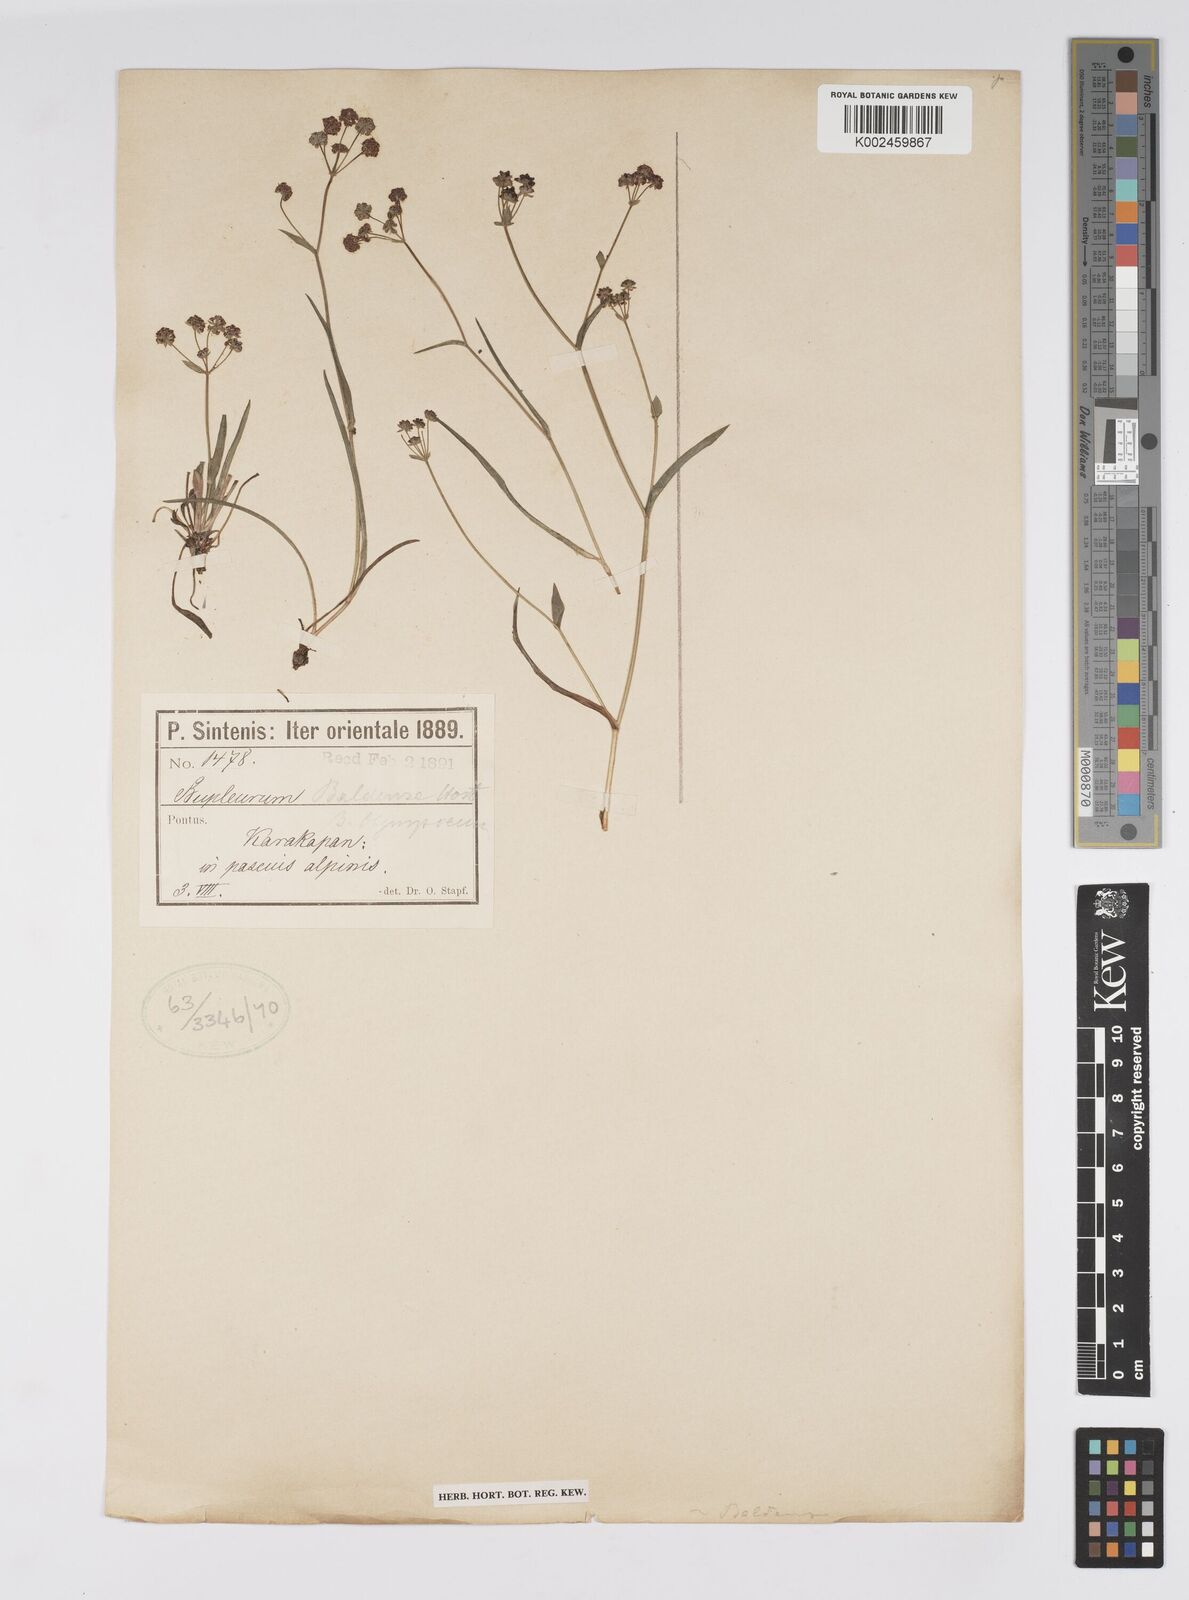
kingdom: Plantae
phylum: Tracheophyta
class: Magnoliopsida
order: Apiales
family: Apiaceae
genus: Bupleurum
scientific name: Bupleurum falcatum
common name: Sickle-leaved hare's-ear
